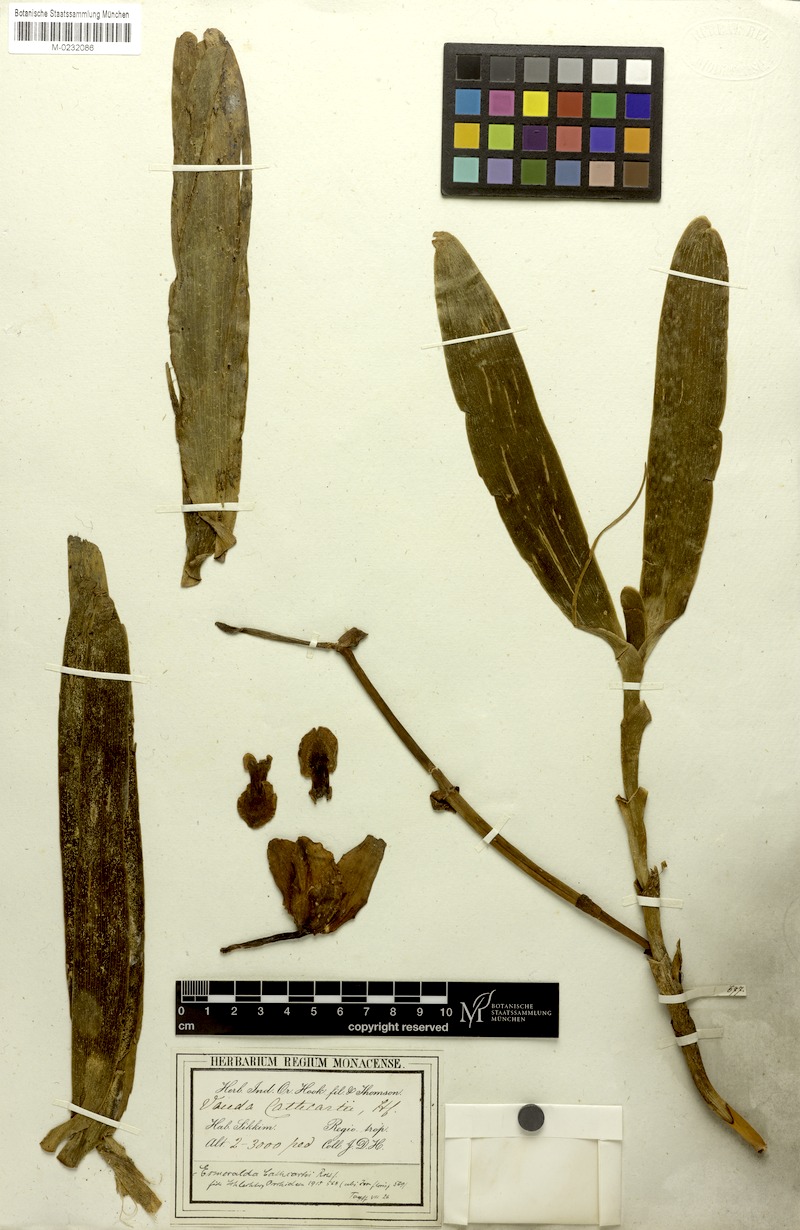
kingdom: Plantae
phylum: Tracheophyta
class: Liliopsida
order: Asparagales
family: Orchidaceae
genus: Arachnis
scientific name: Arachnis cathcartii
